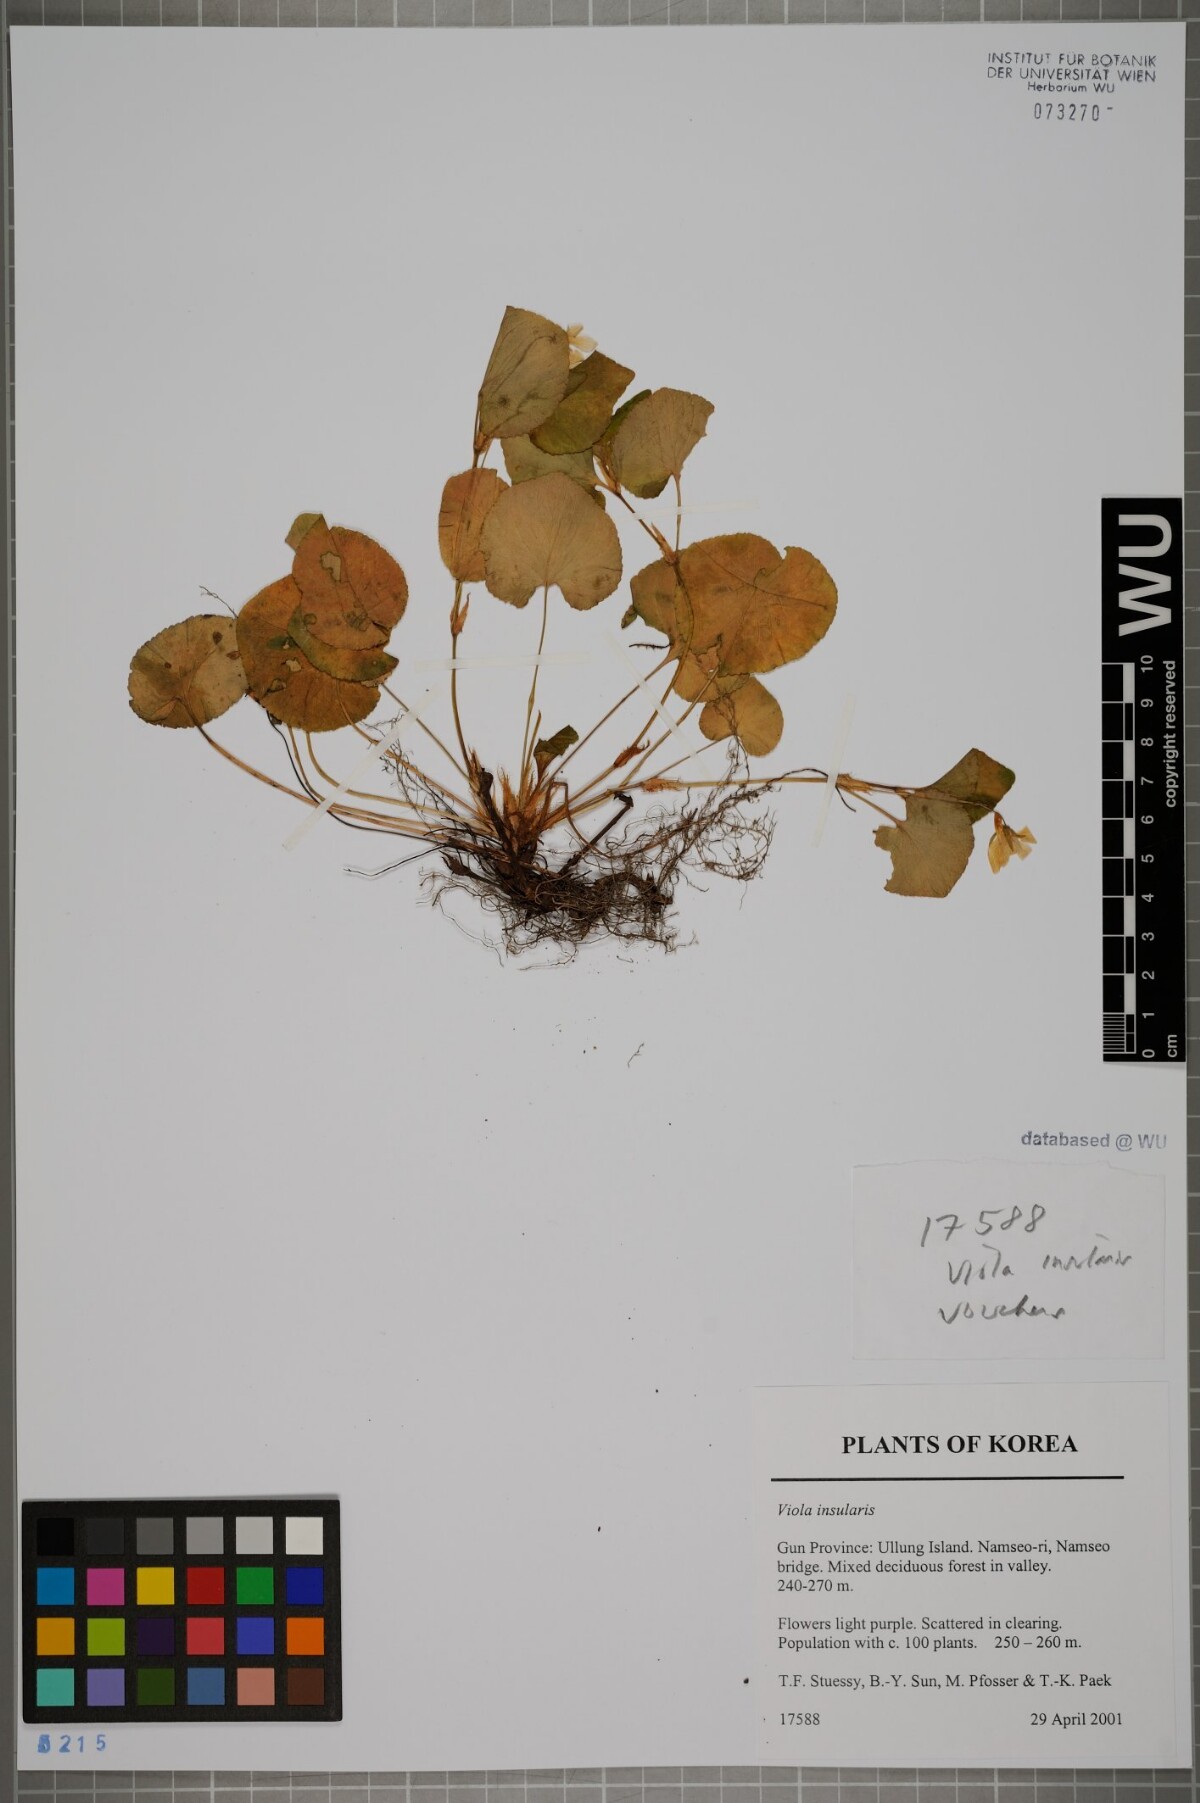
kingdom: Plantae
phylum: Tracheophyta
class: Magnoliopsida
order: Malpighiales
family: Violaceae
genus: Viola
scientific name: Viola kusanoana
